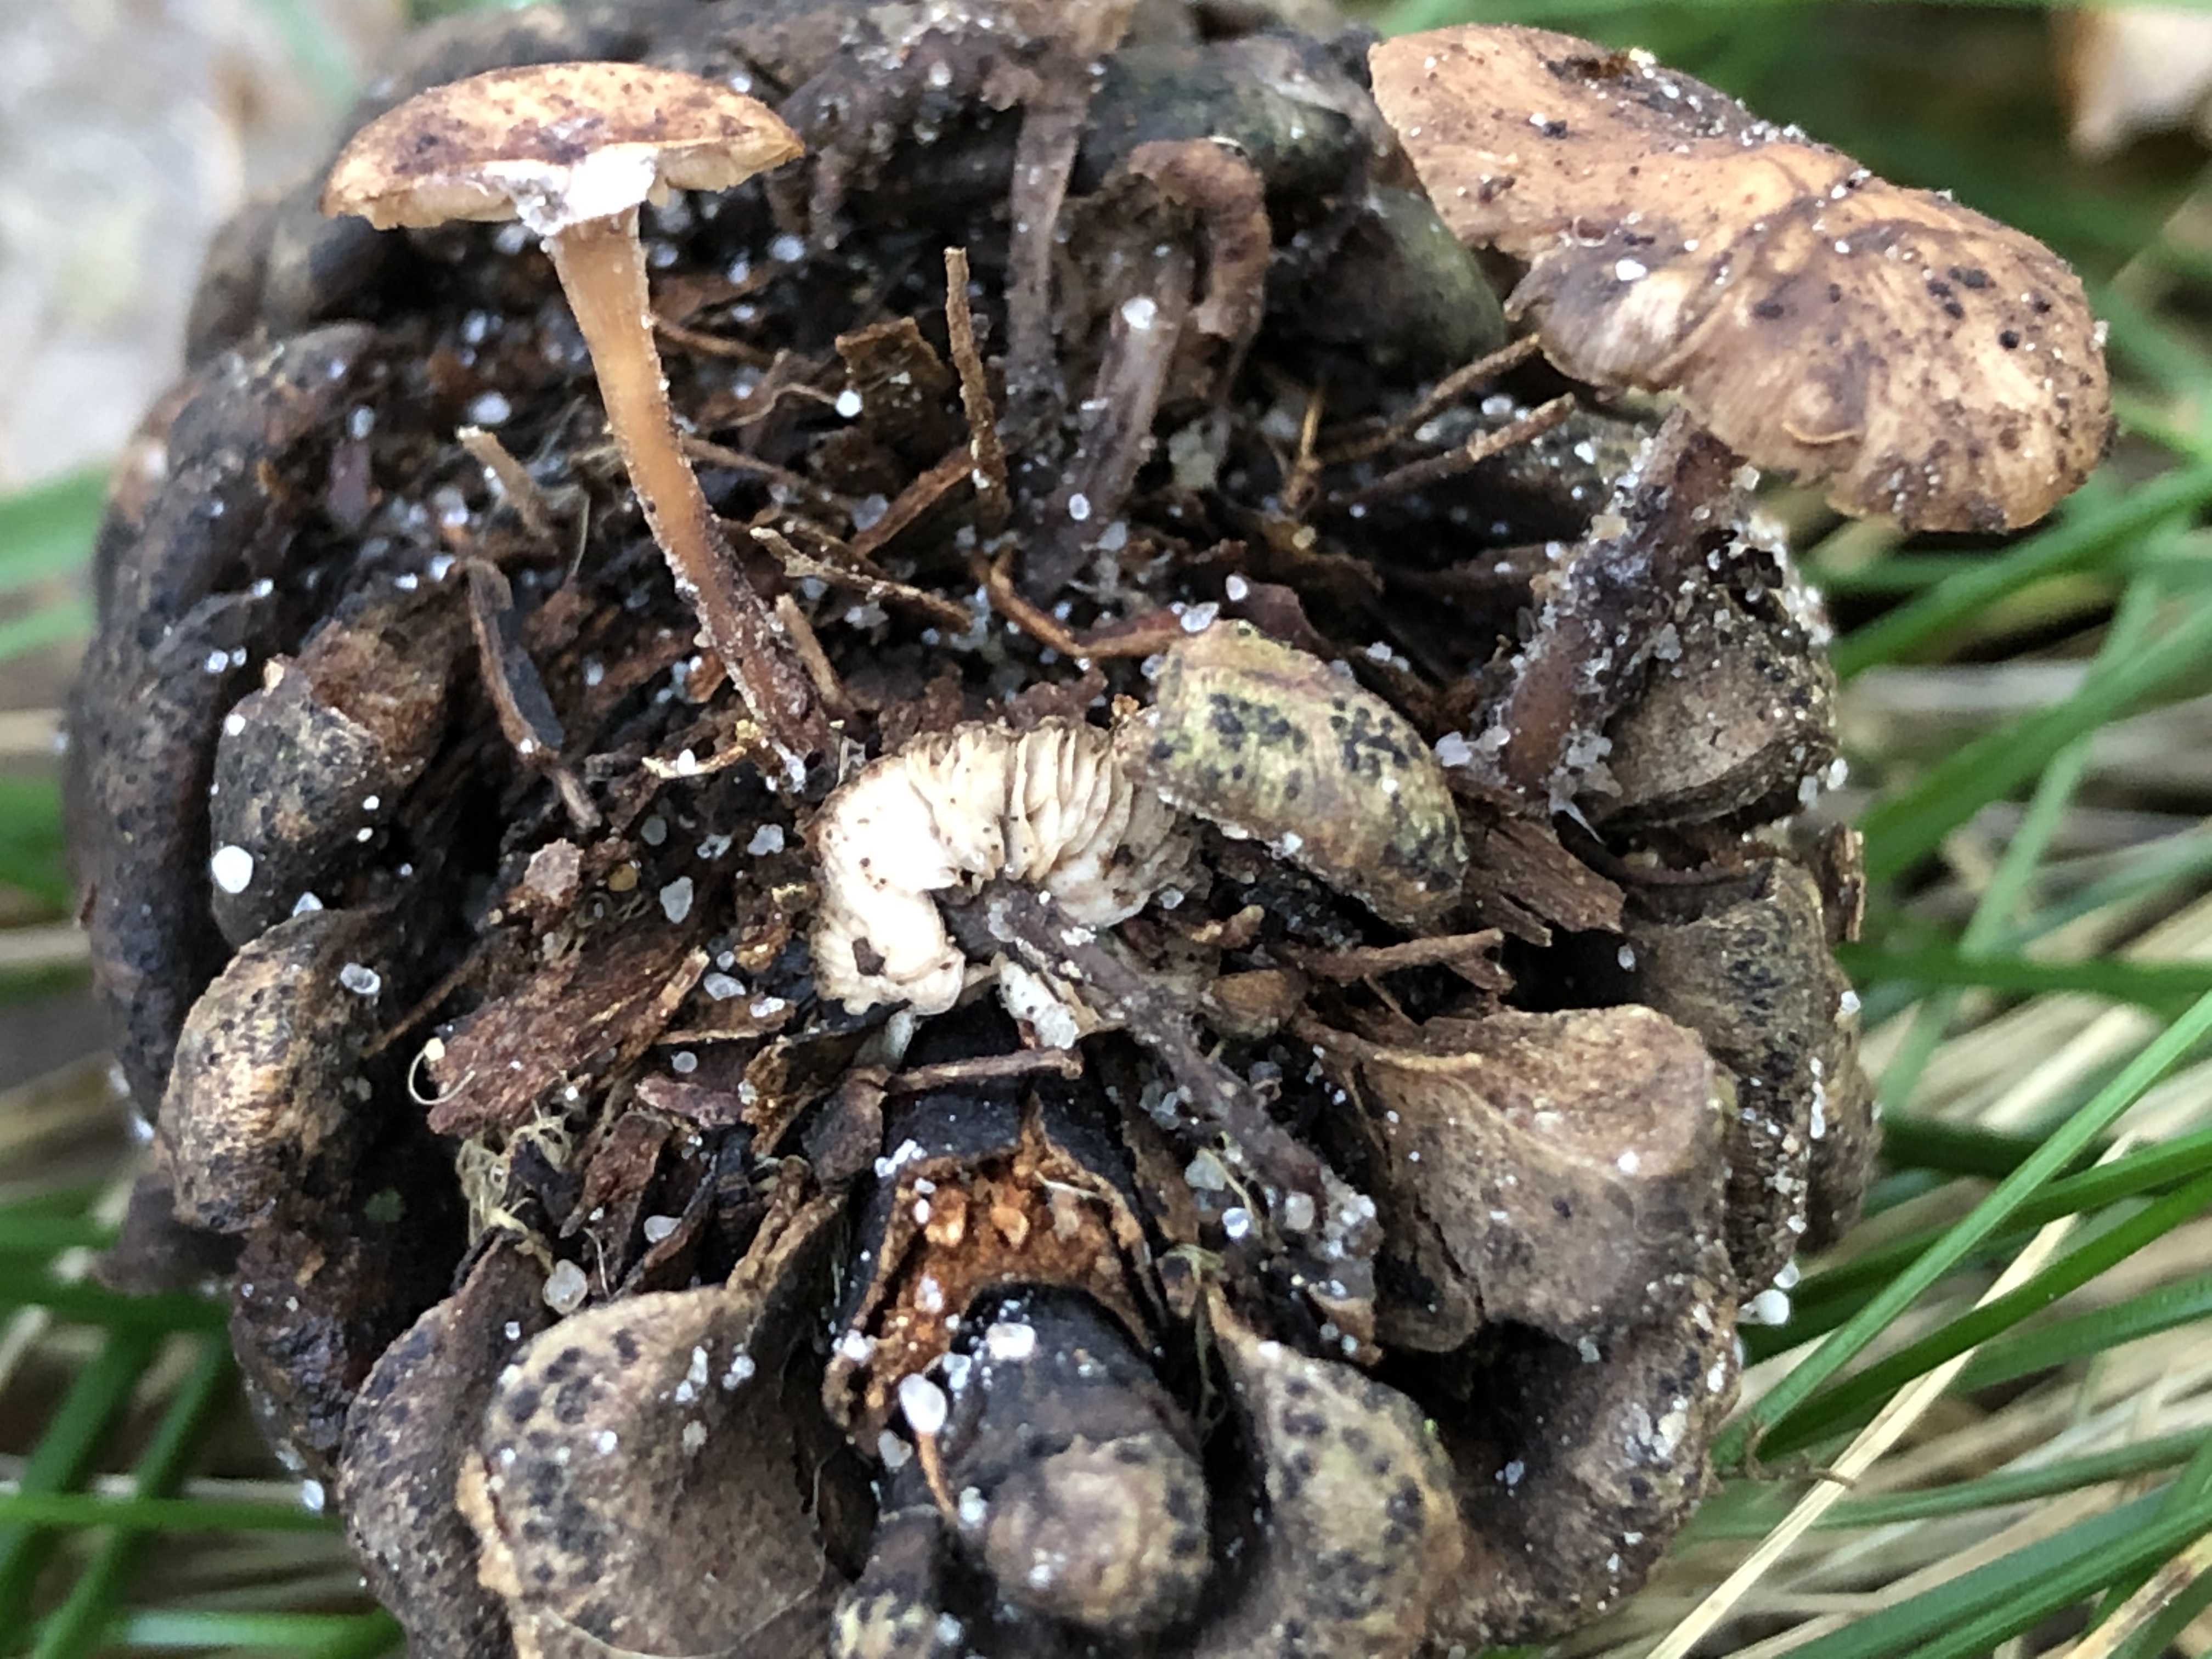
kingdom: Fungi
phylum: Basidiomycota
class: Agaricomycetes
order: Agaricales
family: Marasmiaceae
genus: Baeospora
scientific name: Baeospora myosura
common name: koglebruskhat
